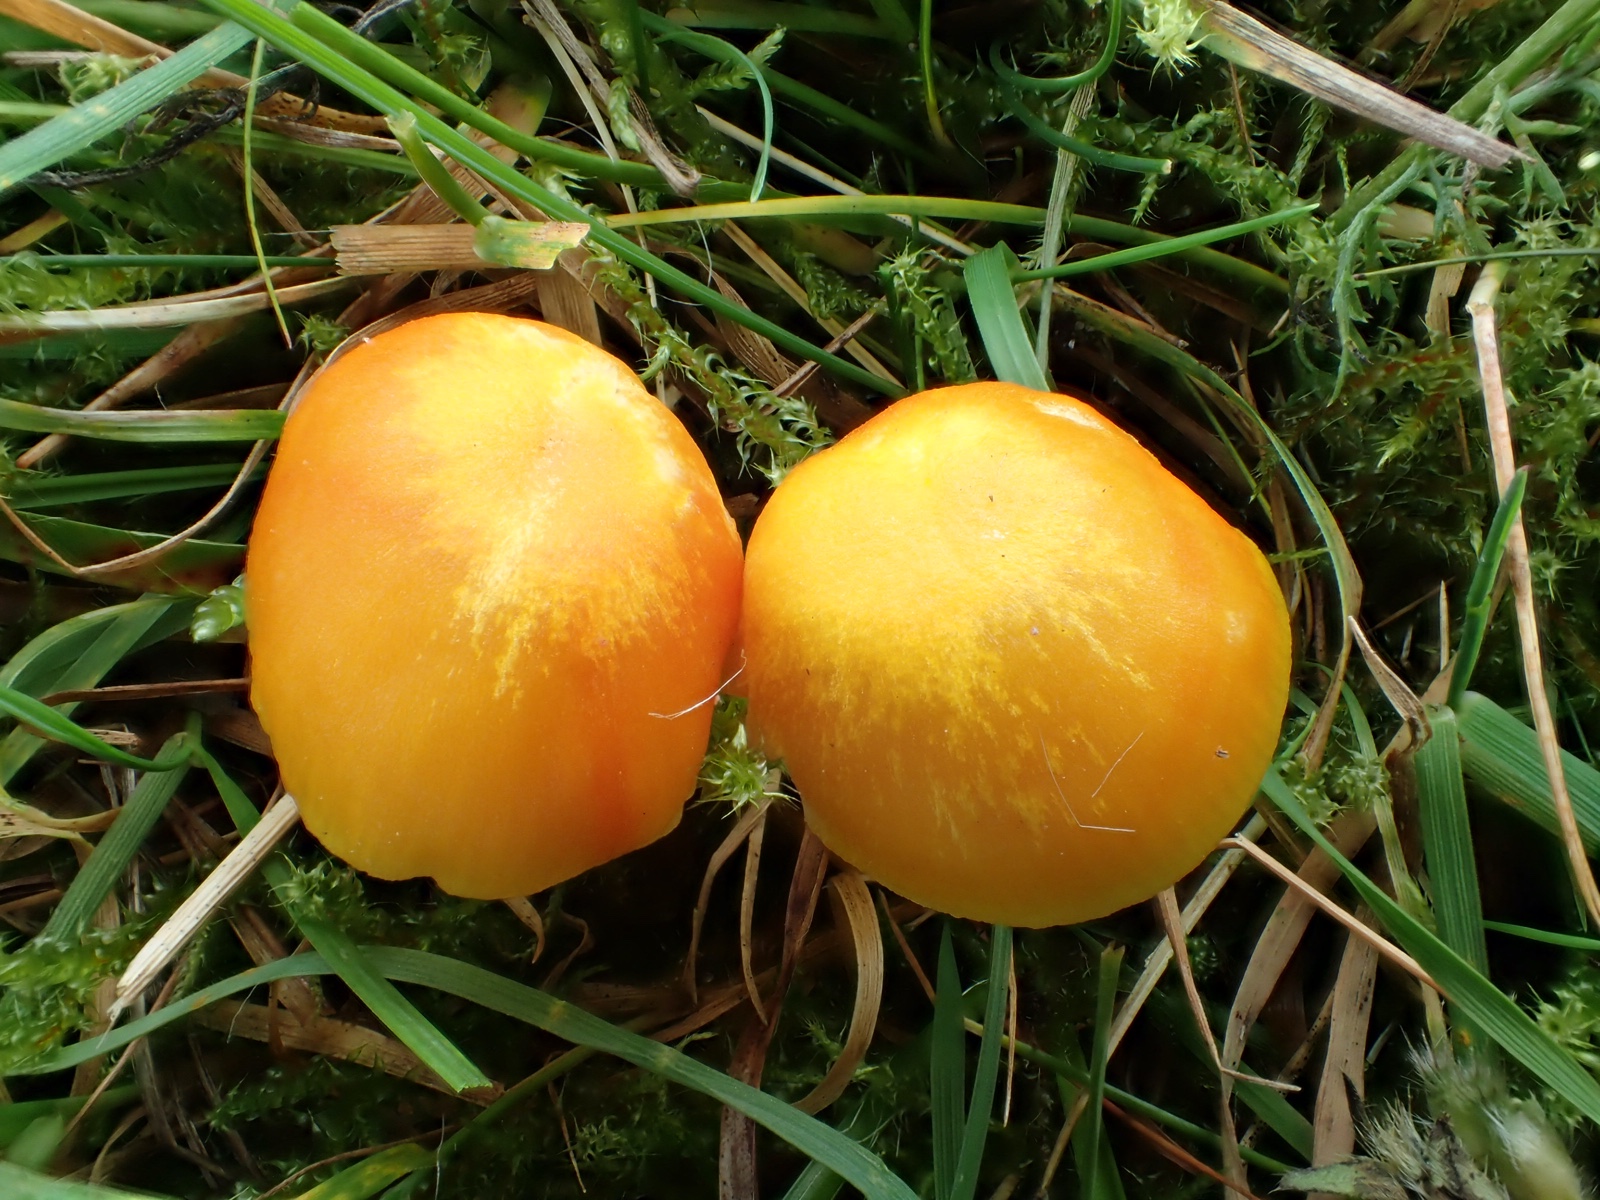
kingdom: Fungi
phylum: Basidiomycota
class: Agaricomycetes
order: Agaricales
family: Hygrophoraceae
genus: Hygrocybe
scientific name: Hygrocybe ceracea
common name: voksgul vokshat
